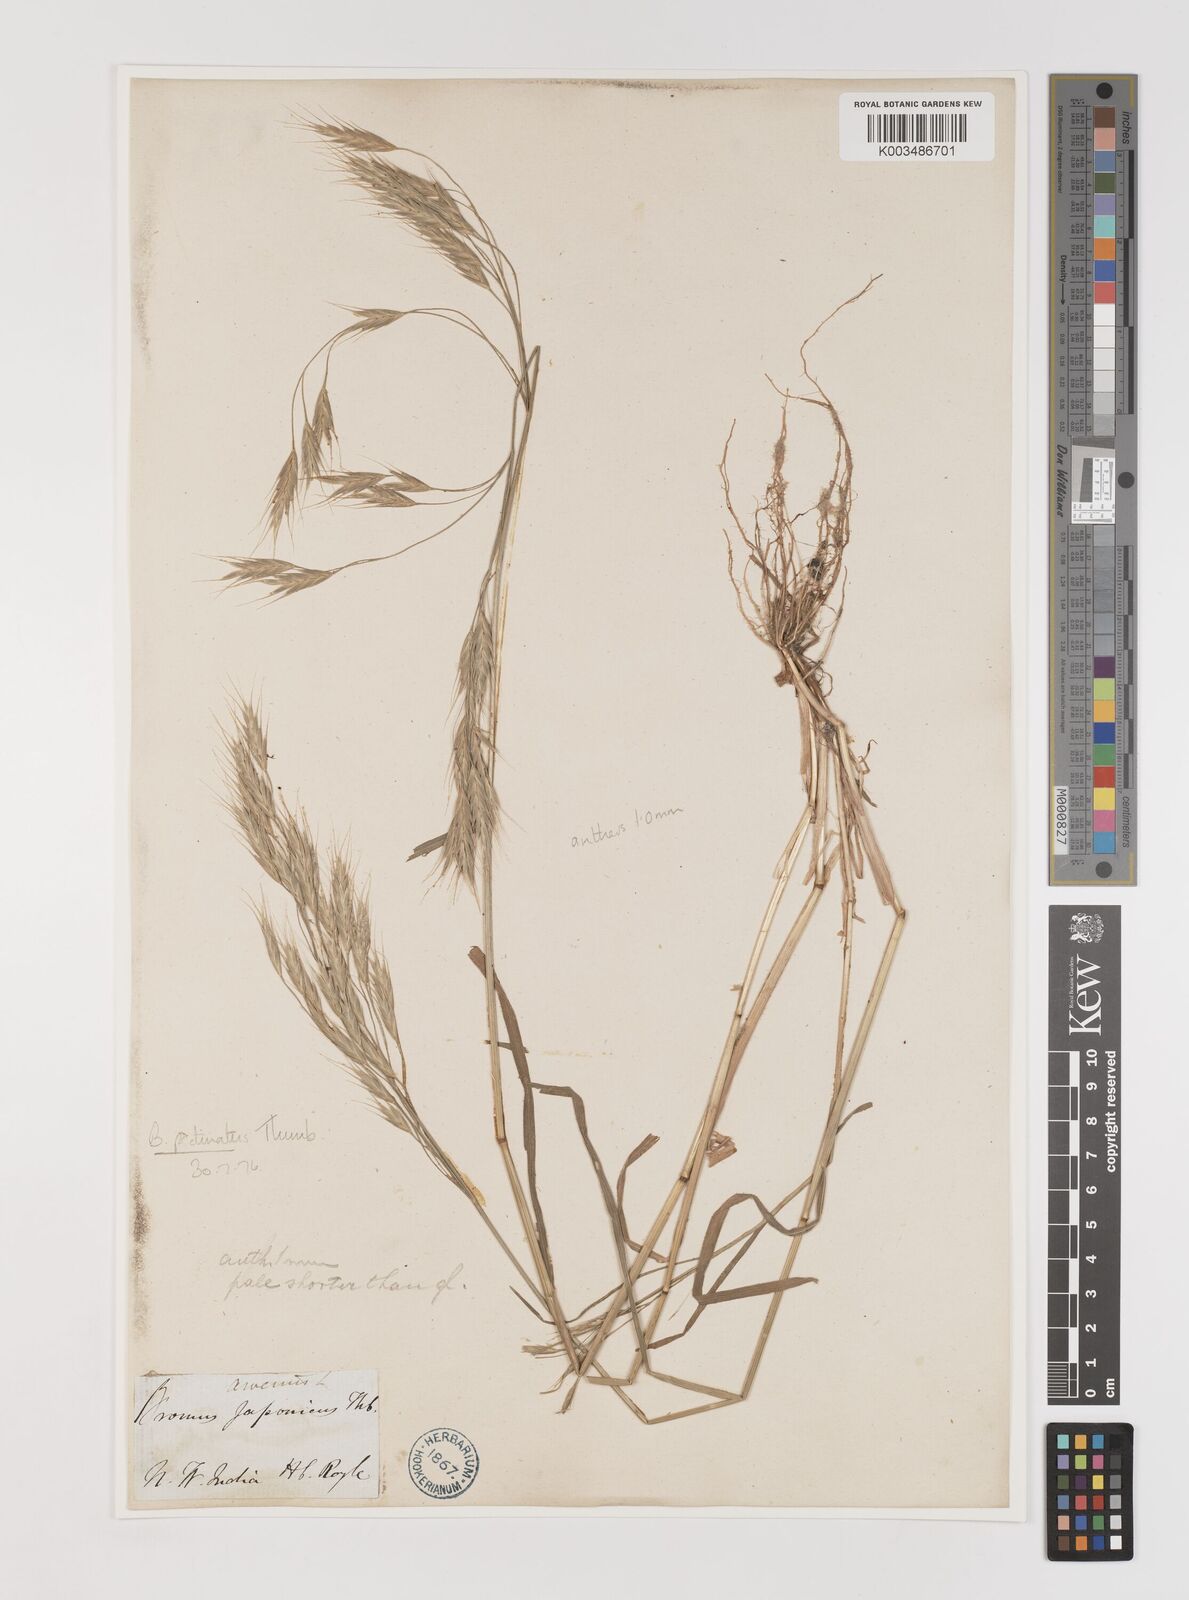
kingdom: Plantae
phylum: Tracheophyta
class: Liliopsida
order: Poales
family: Poaceae
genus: Bromus
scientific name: Bromus pectinatus
